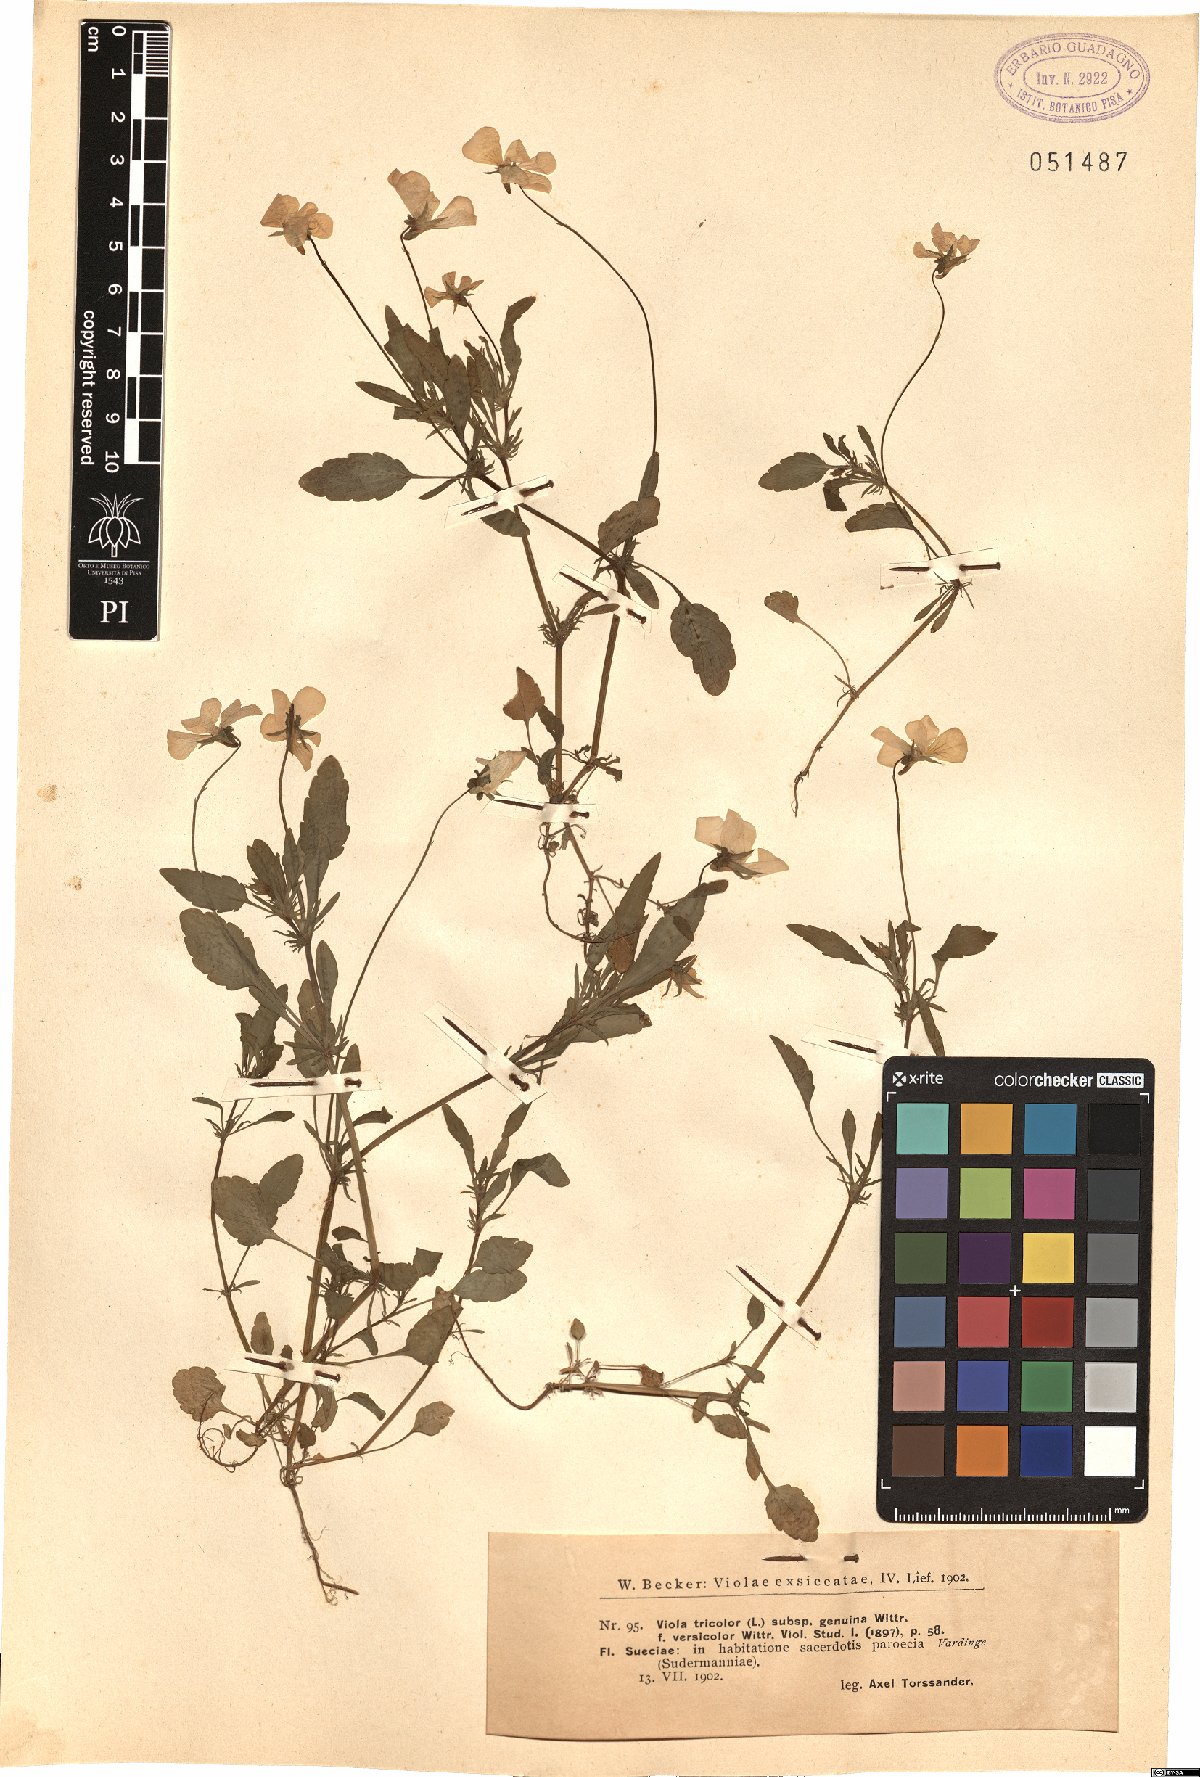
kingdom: Plantae
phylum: Tracheophyta
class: Magnoliopsida
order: Malpighiales
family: Violaceae
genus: Viola
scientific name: Viola tricolor
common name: Pansy
